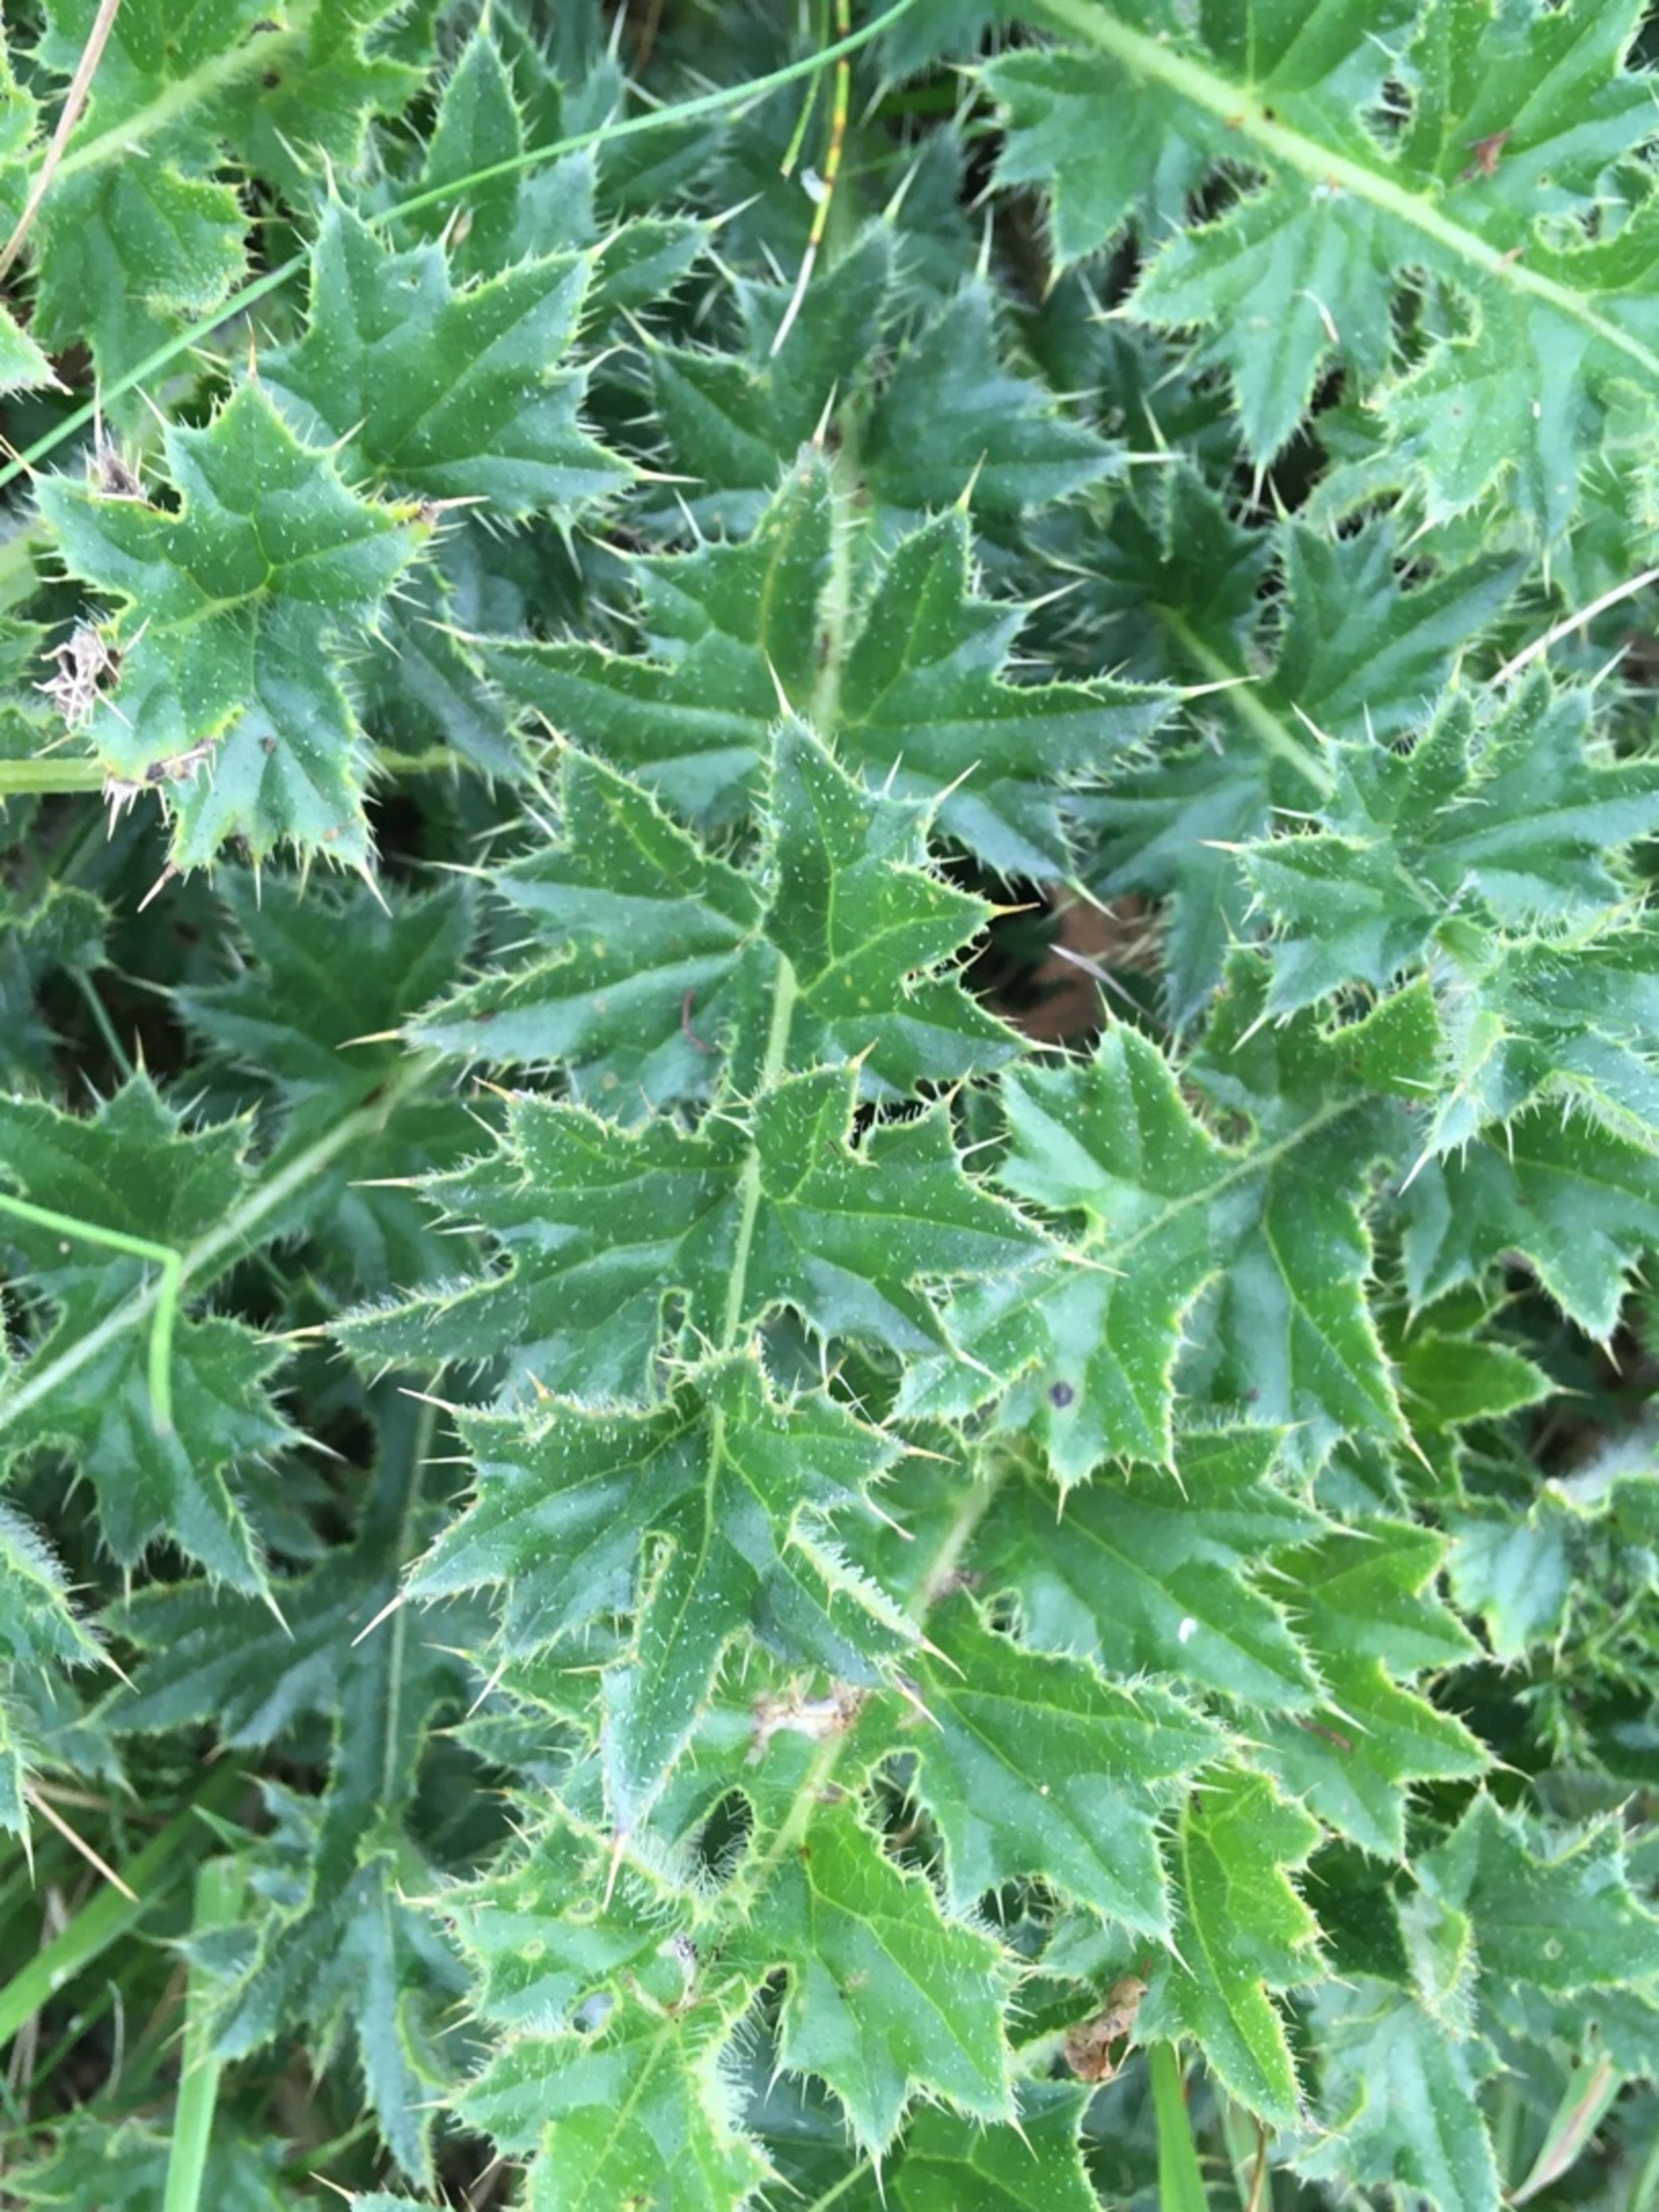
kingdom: Plantae
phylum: Tracheophyta
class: Magnoliopsida
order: Asterales
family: Asteraceae
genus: Cirsium
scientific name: Cirsium acaule
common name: Lav tidsel
